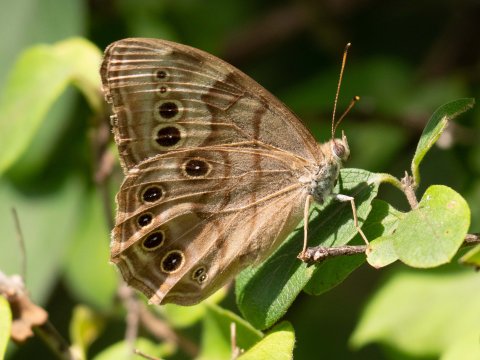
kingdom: Animalia
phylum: Arthropoda
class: Insecta
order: Lepidoptera
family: Nymphalidae
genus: Lethe
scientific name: Lethe anthedon
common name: Northern Pearly-Eye
